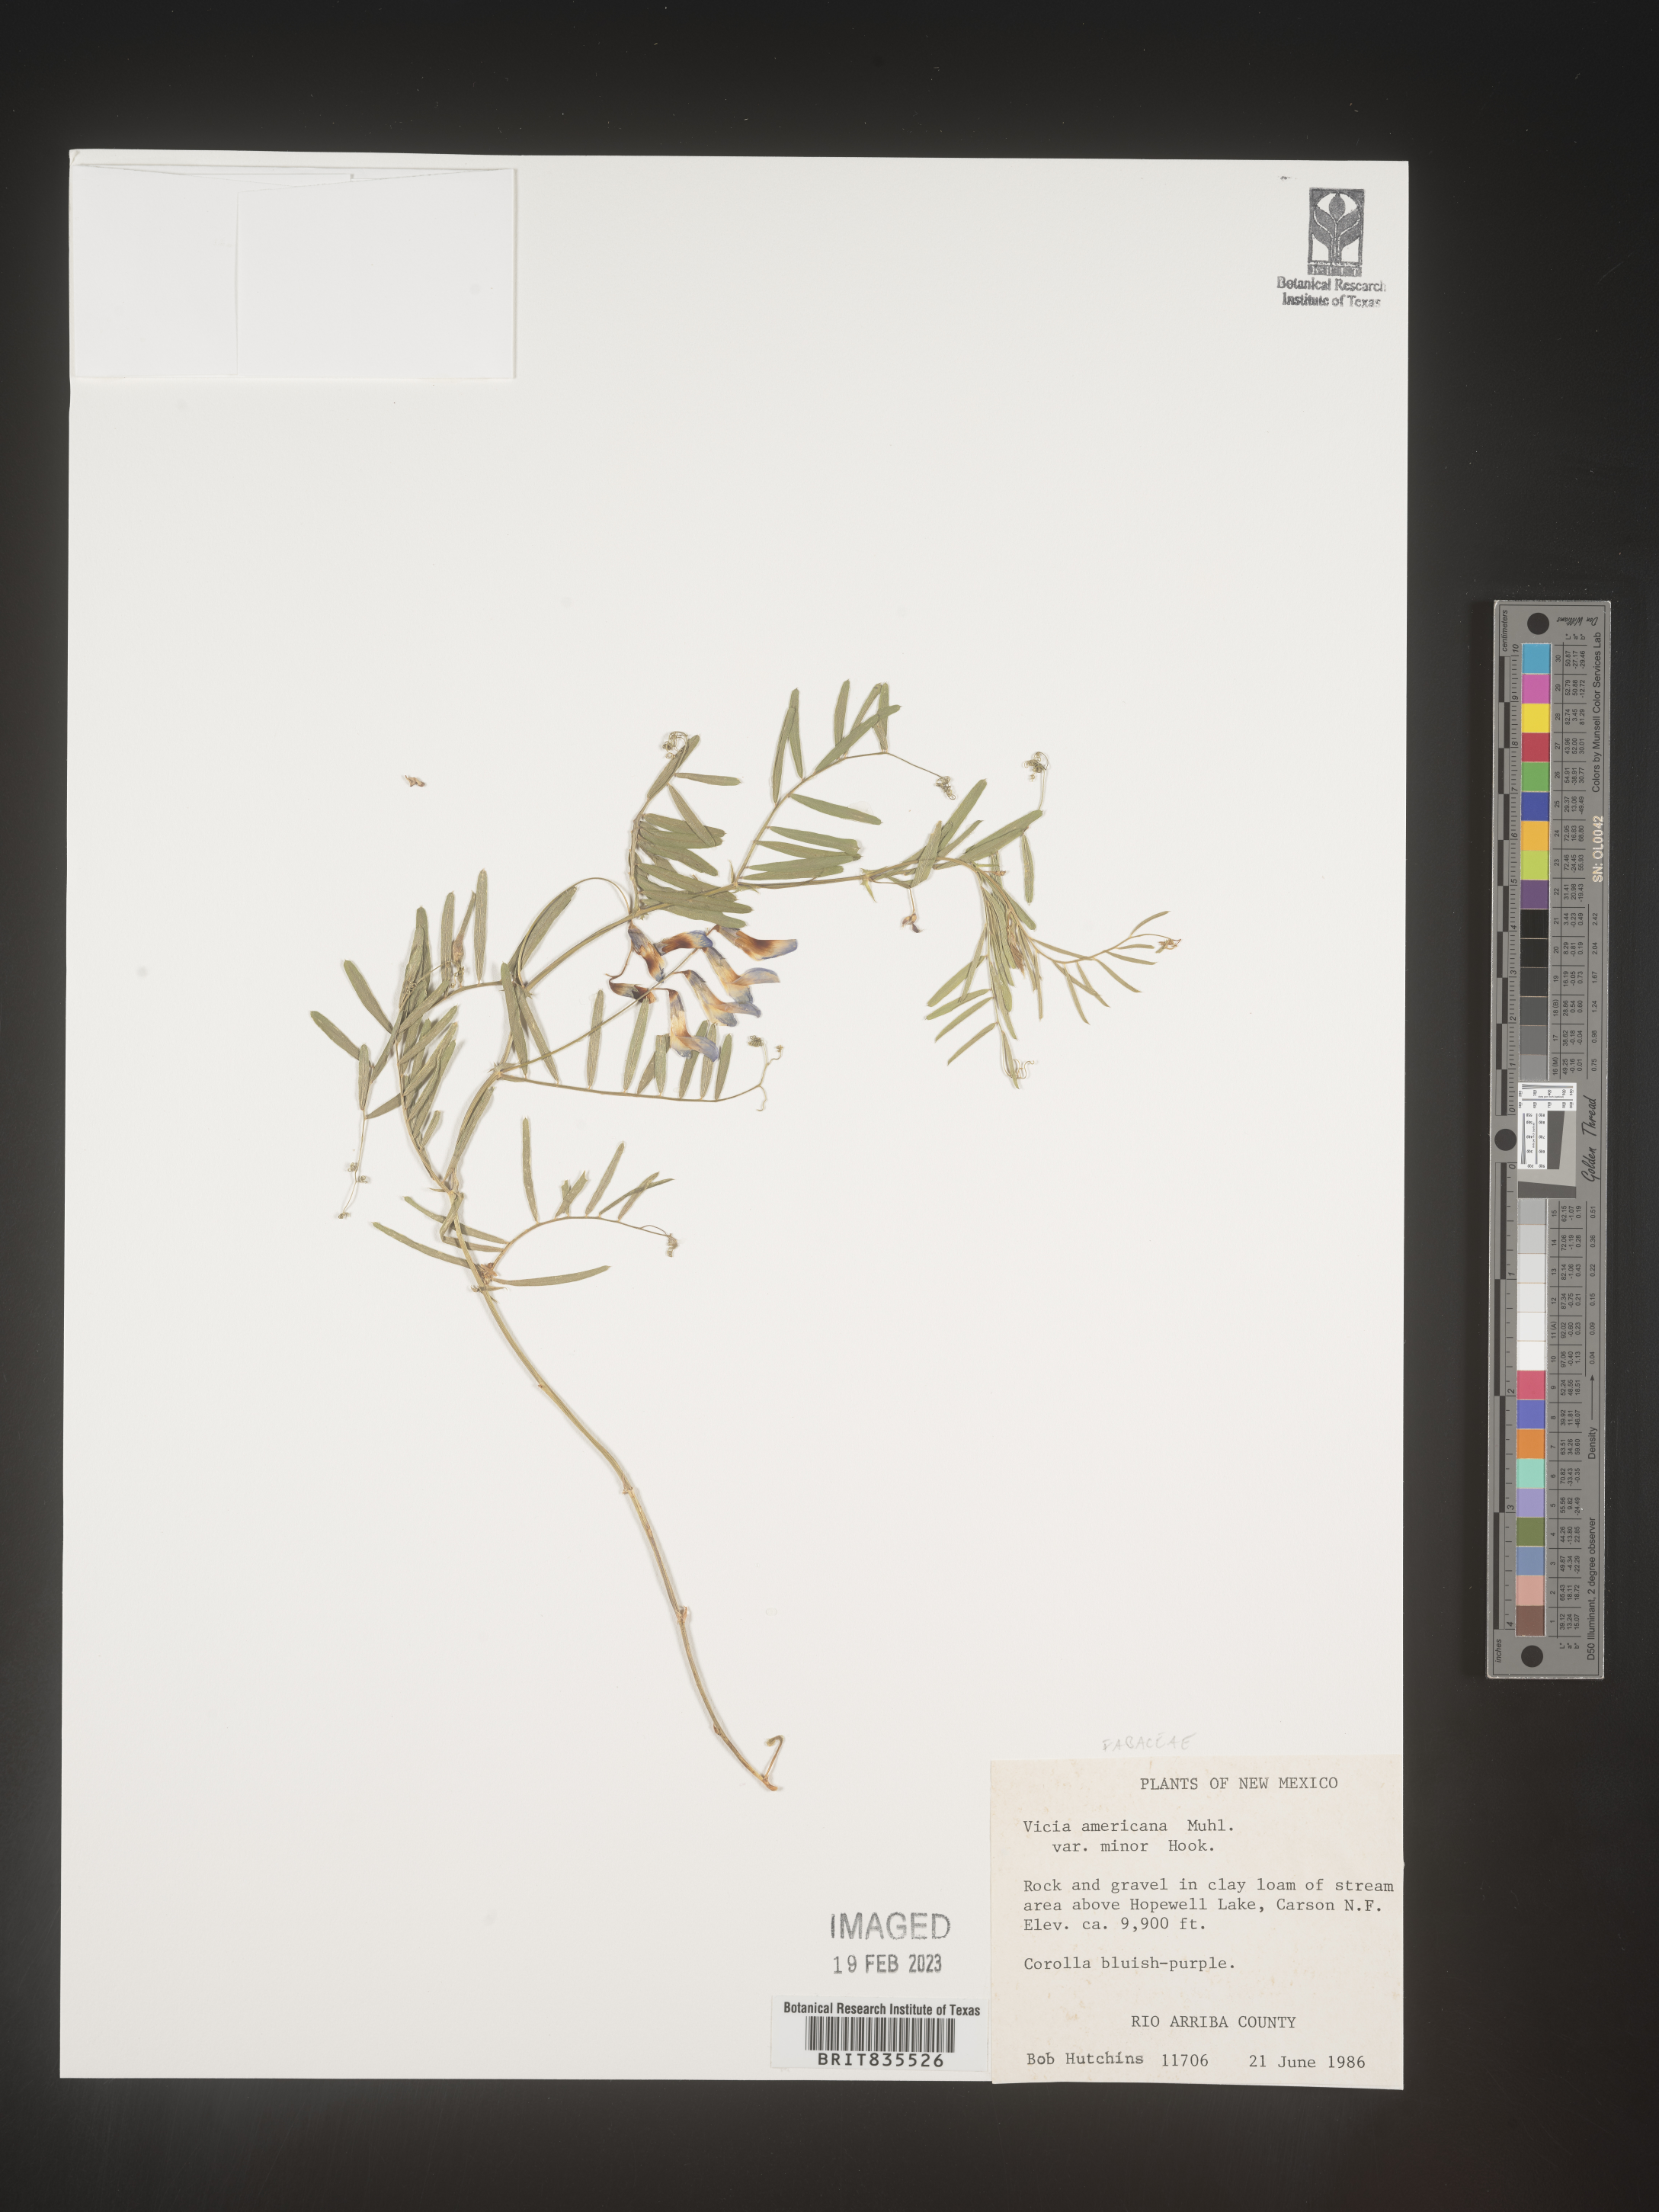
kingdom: Plantae
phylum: Tracheophyta
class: Magnoliopsida
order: Fabales
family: Fabaceae
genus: Vicia
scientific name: Vicia americana
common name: American vetch
